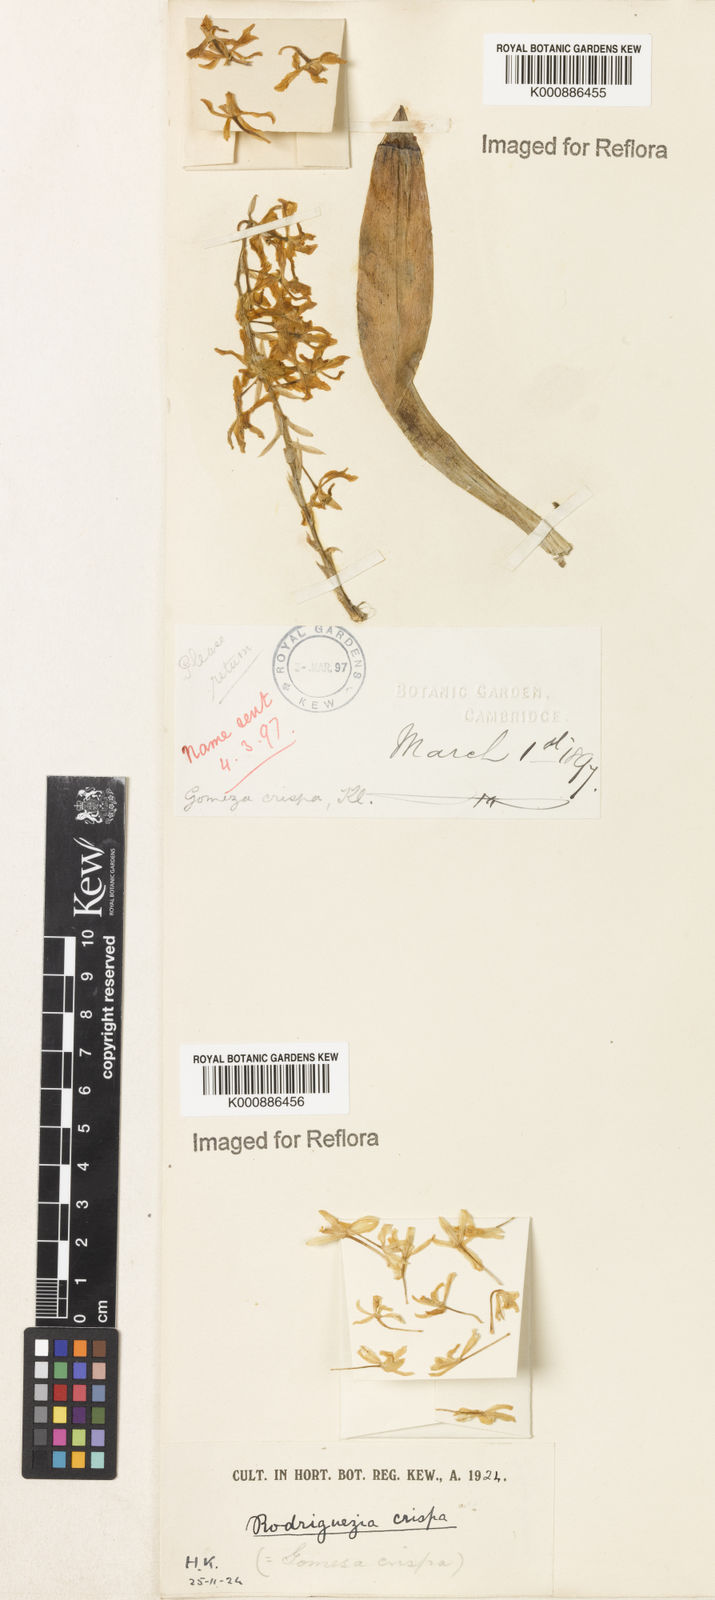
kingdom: Plantae
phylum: Tracheophyta
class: Liliopsida
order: Asparagales
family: Orchidaceae
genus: Gomesa
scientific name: Gomesa crispa
